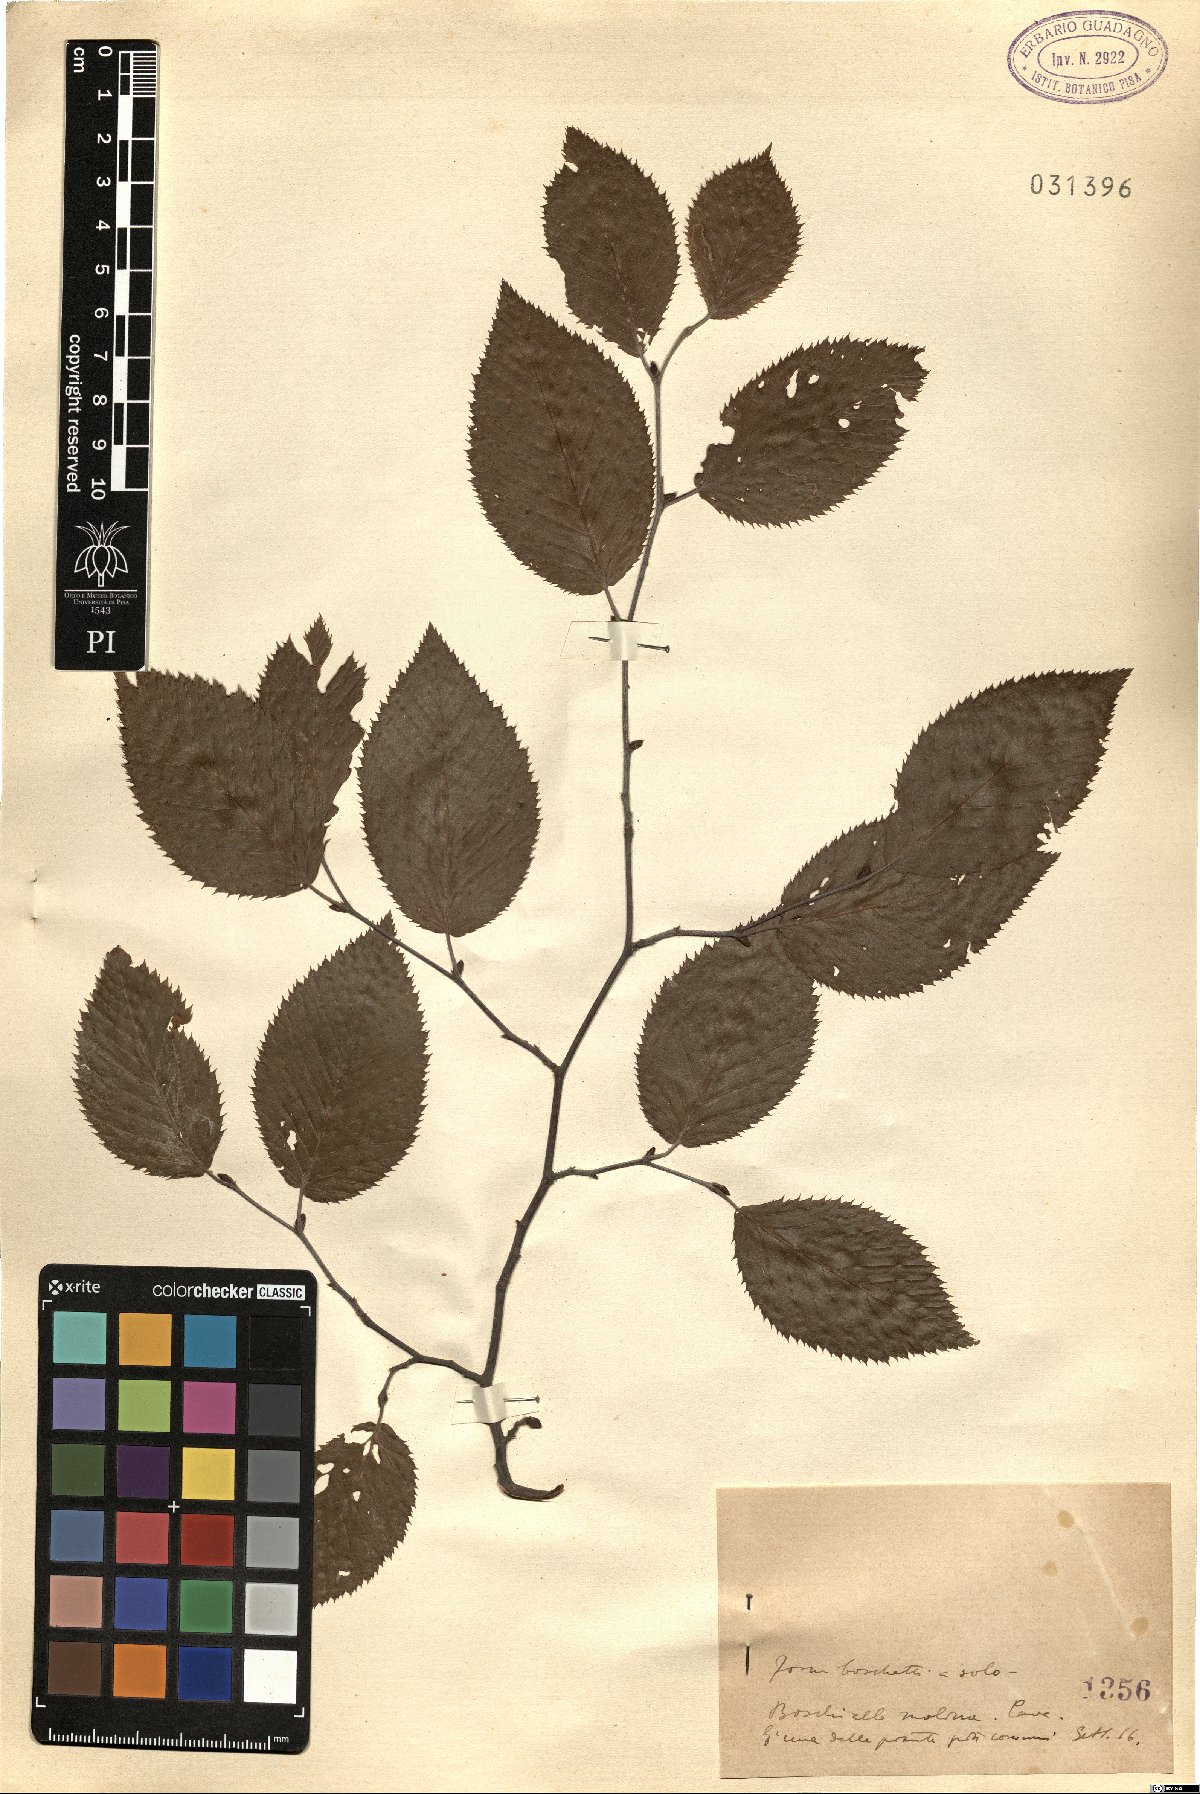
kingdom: Plantae
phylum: Tracheophyta
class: Magnoliopsida
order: Fagales
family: Betulaceae
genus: Ostrya
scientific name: Ostrya
